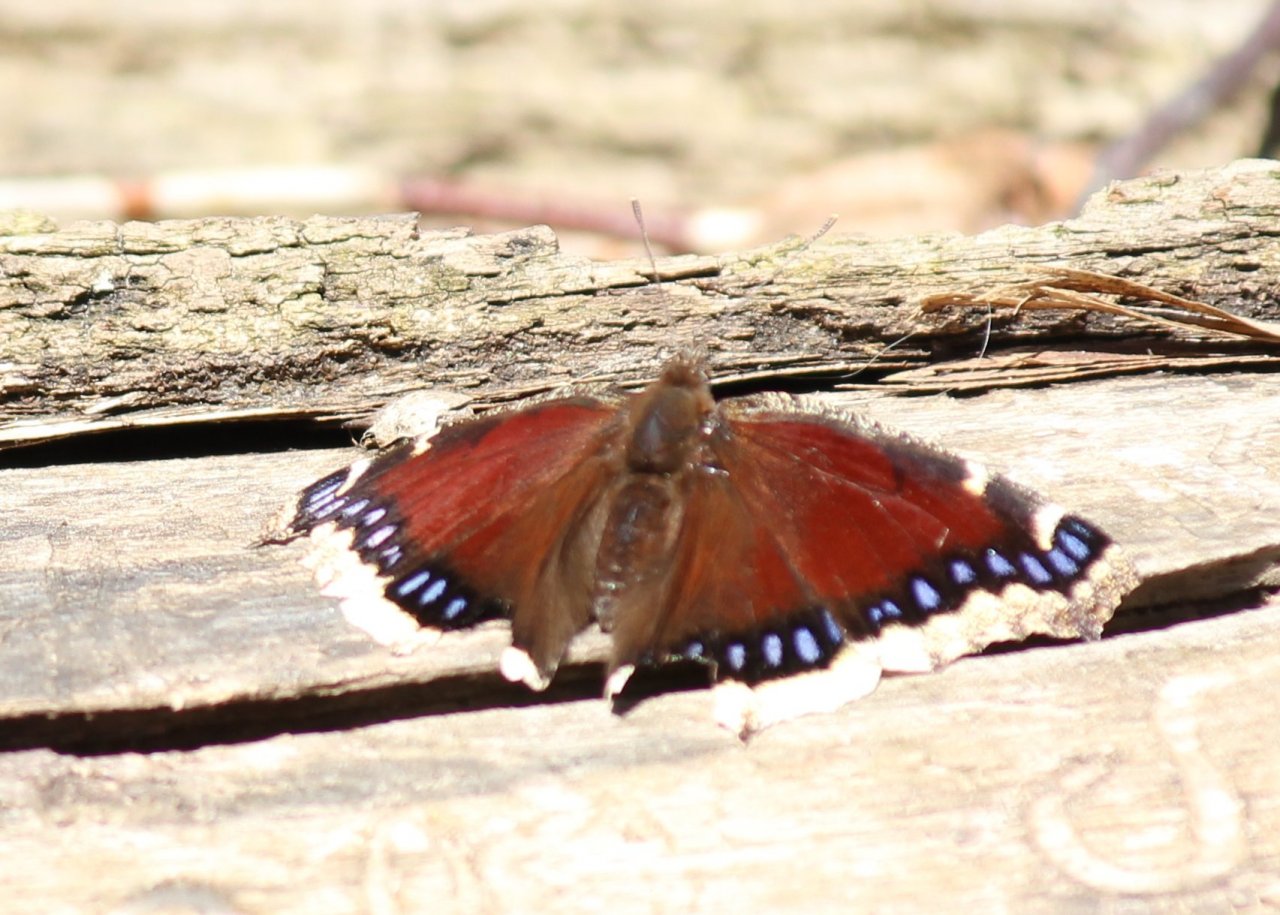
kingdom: Animalia
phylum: Arthropoda
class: Insecta
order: Lepidoptera
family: Nymphalidae
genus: Nymphalis
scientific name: Nymphalis antiopa
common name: Mourning Cloak
